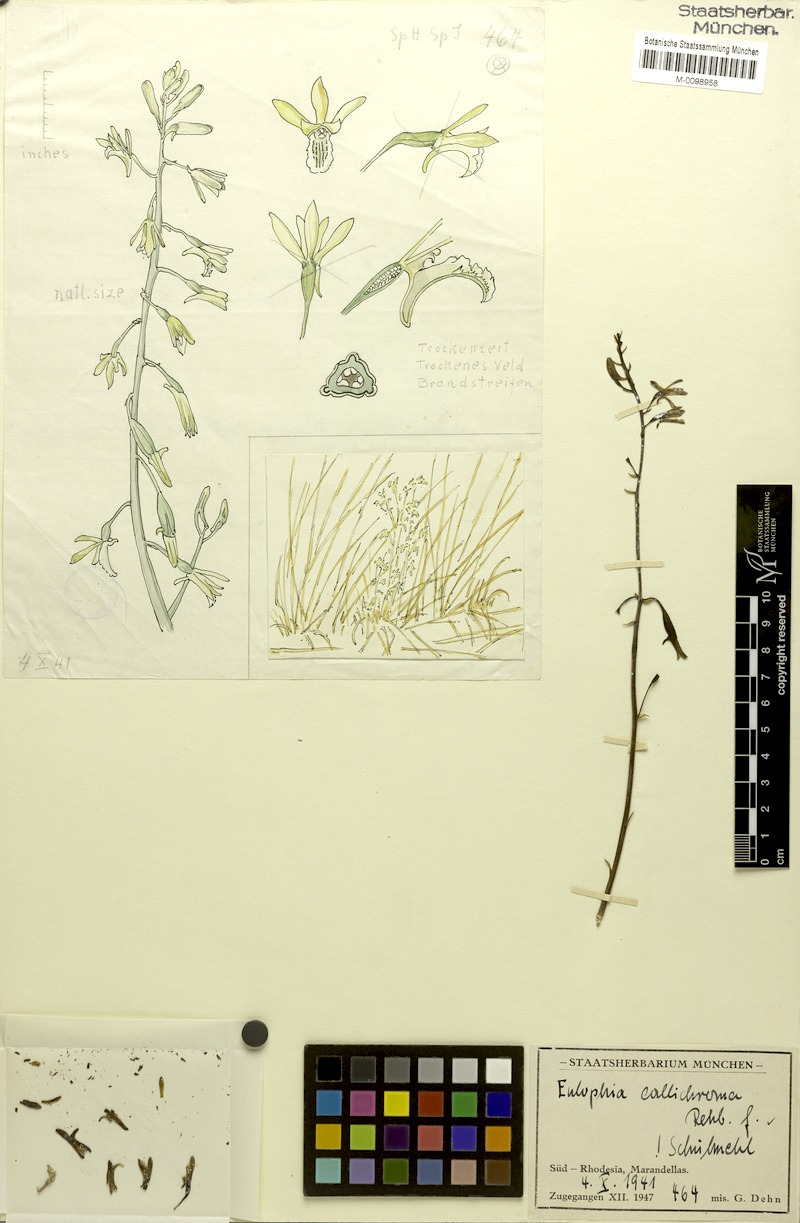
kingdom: Plantae
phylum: Tracheophyta
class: Liliopsida
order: Asparagales
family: Orchidaceae
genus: Eulophia
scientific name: Eulophia callichroma
